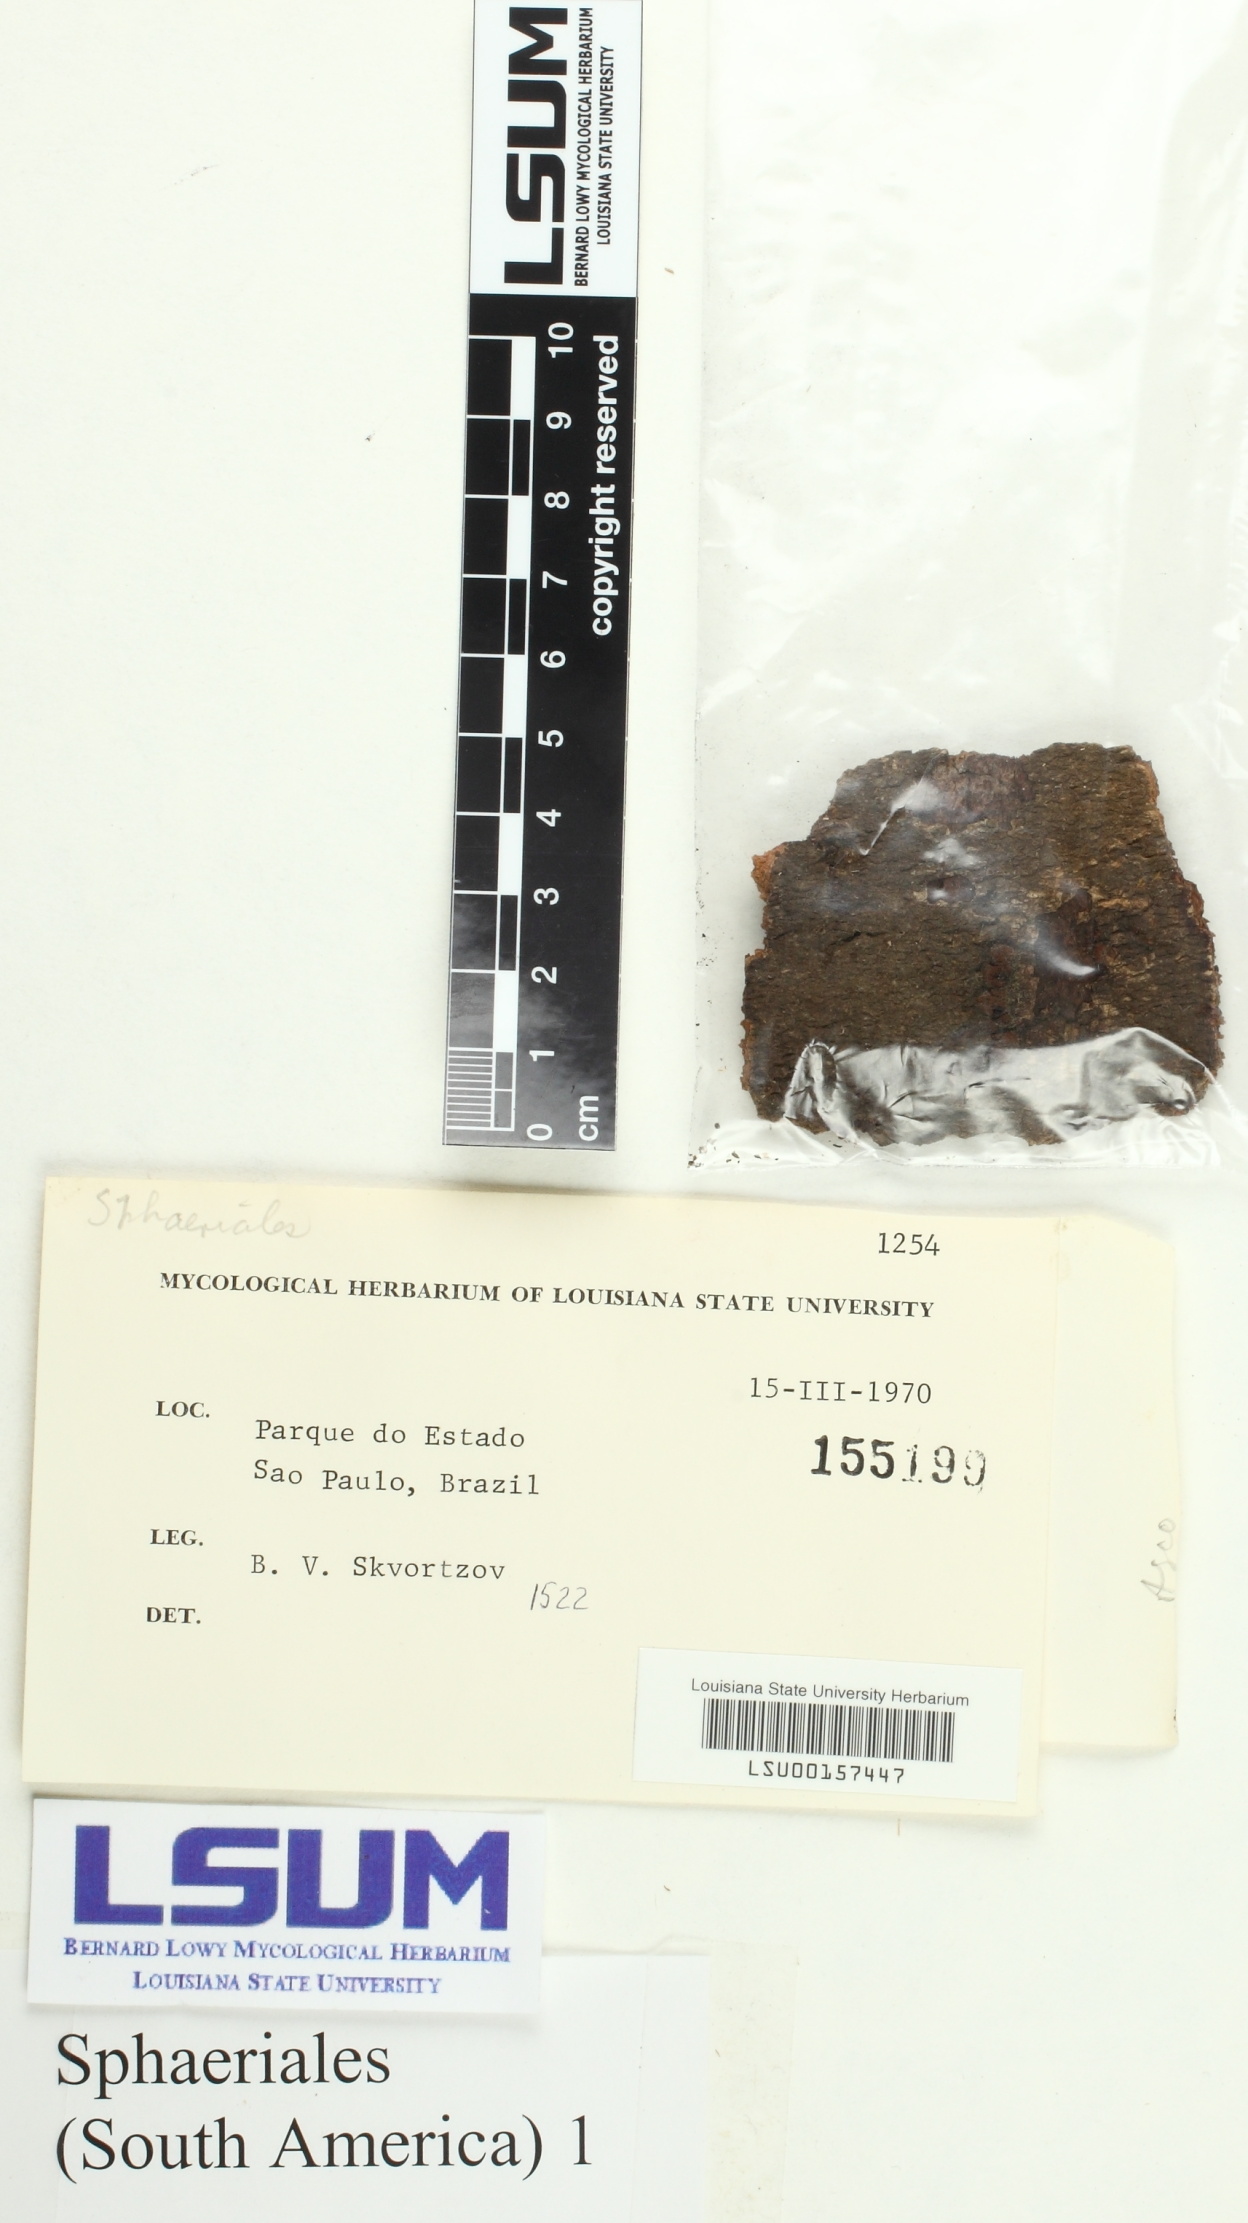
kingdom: Fungi
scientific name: Fungi
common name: Fungi
